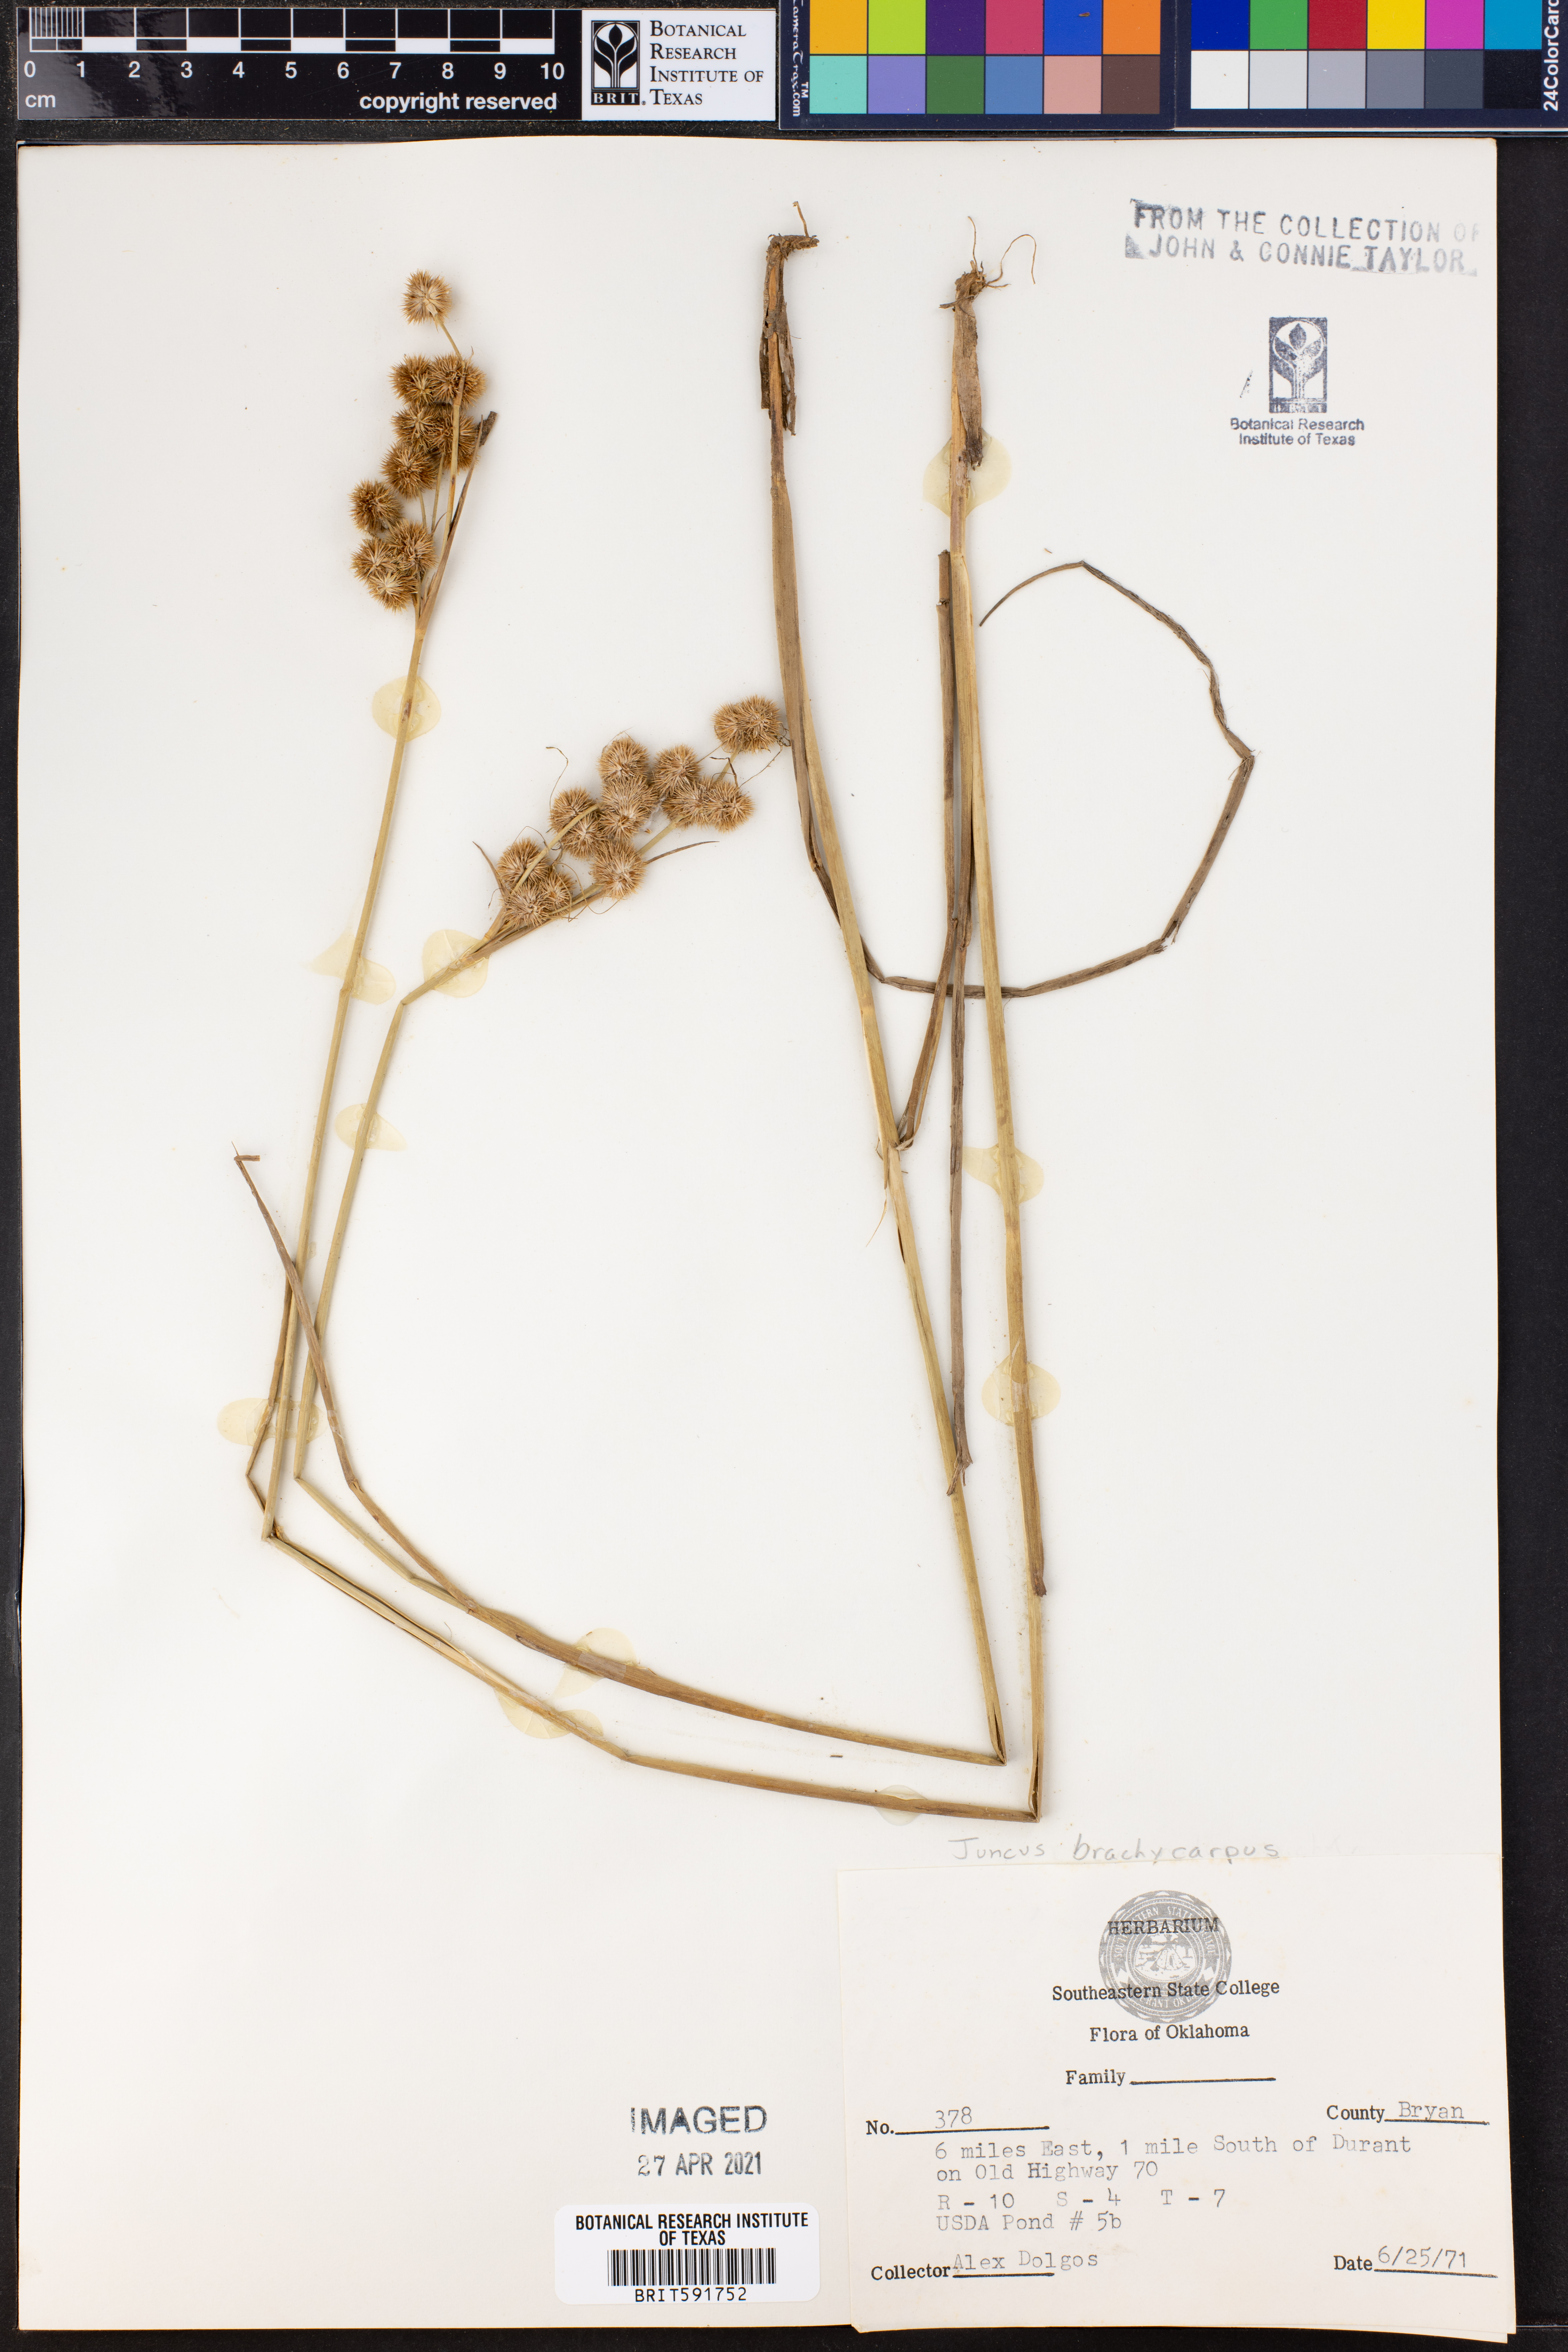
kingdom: Plantae
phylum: Tracheophyta
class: Liliopsida
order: Poales
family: Juncaceae
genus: Juncus
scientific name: Juncus brachycarpus
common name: Shore rush
